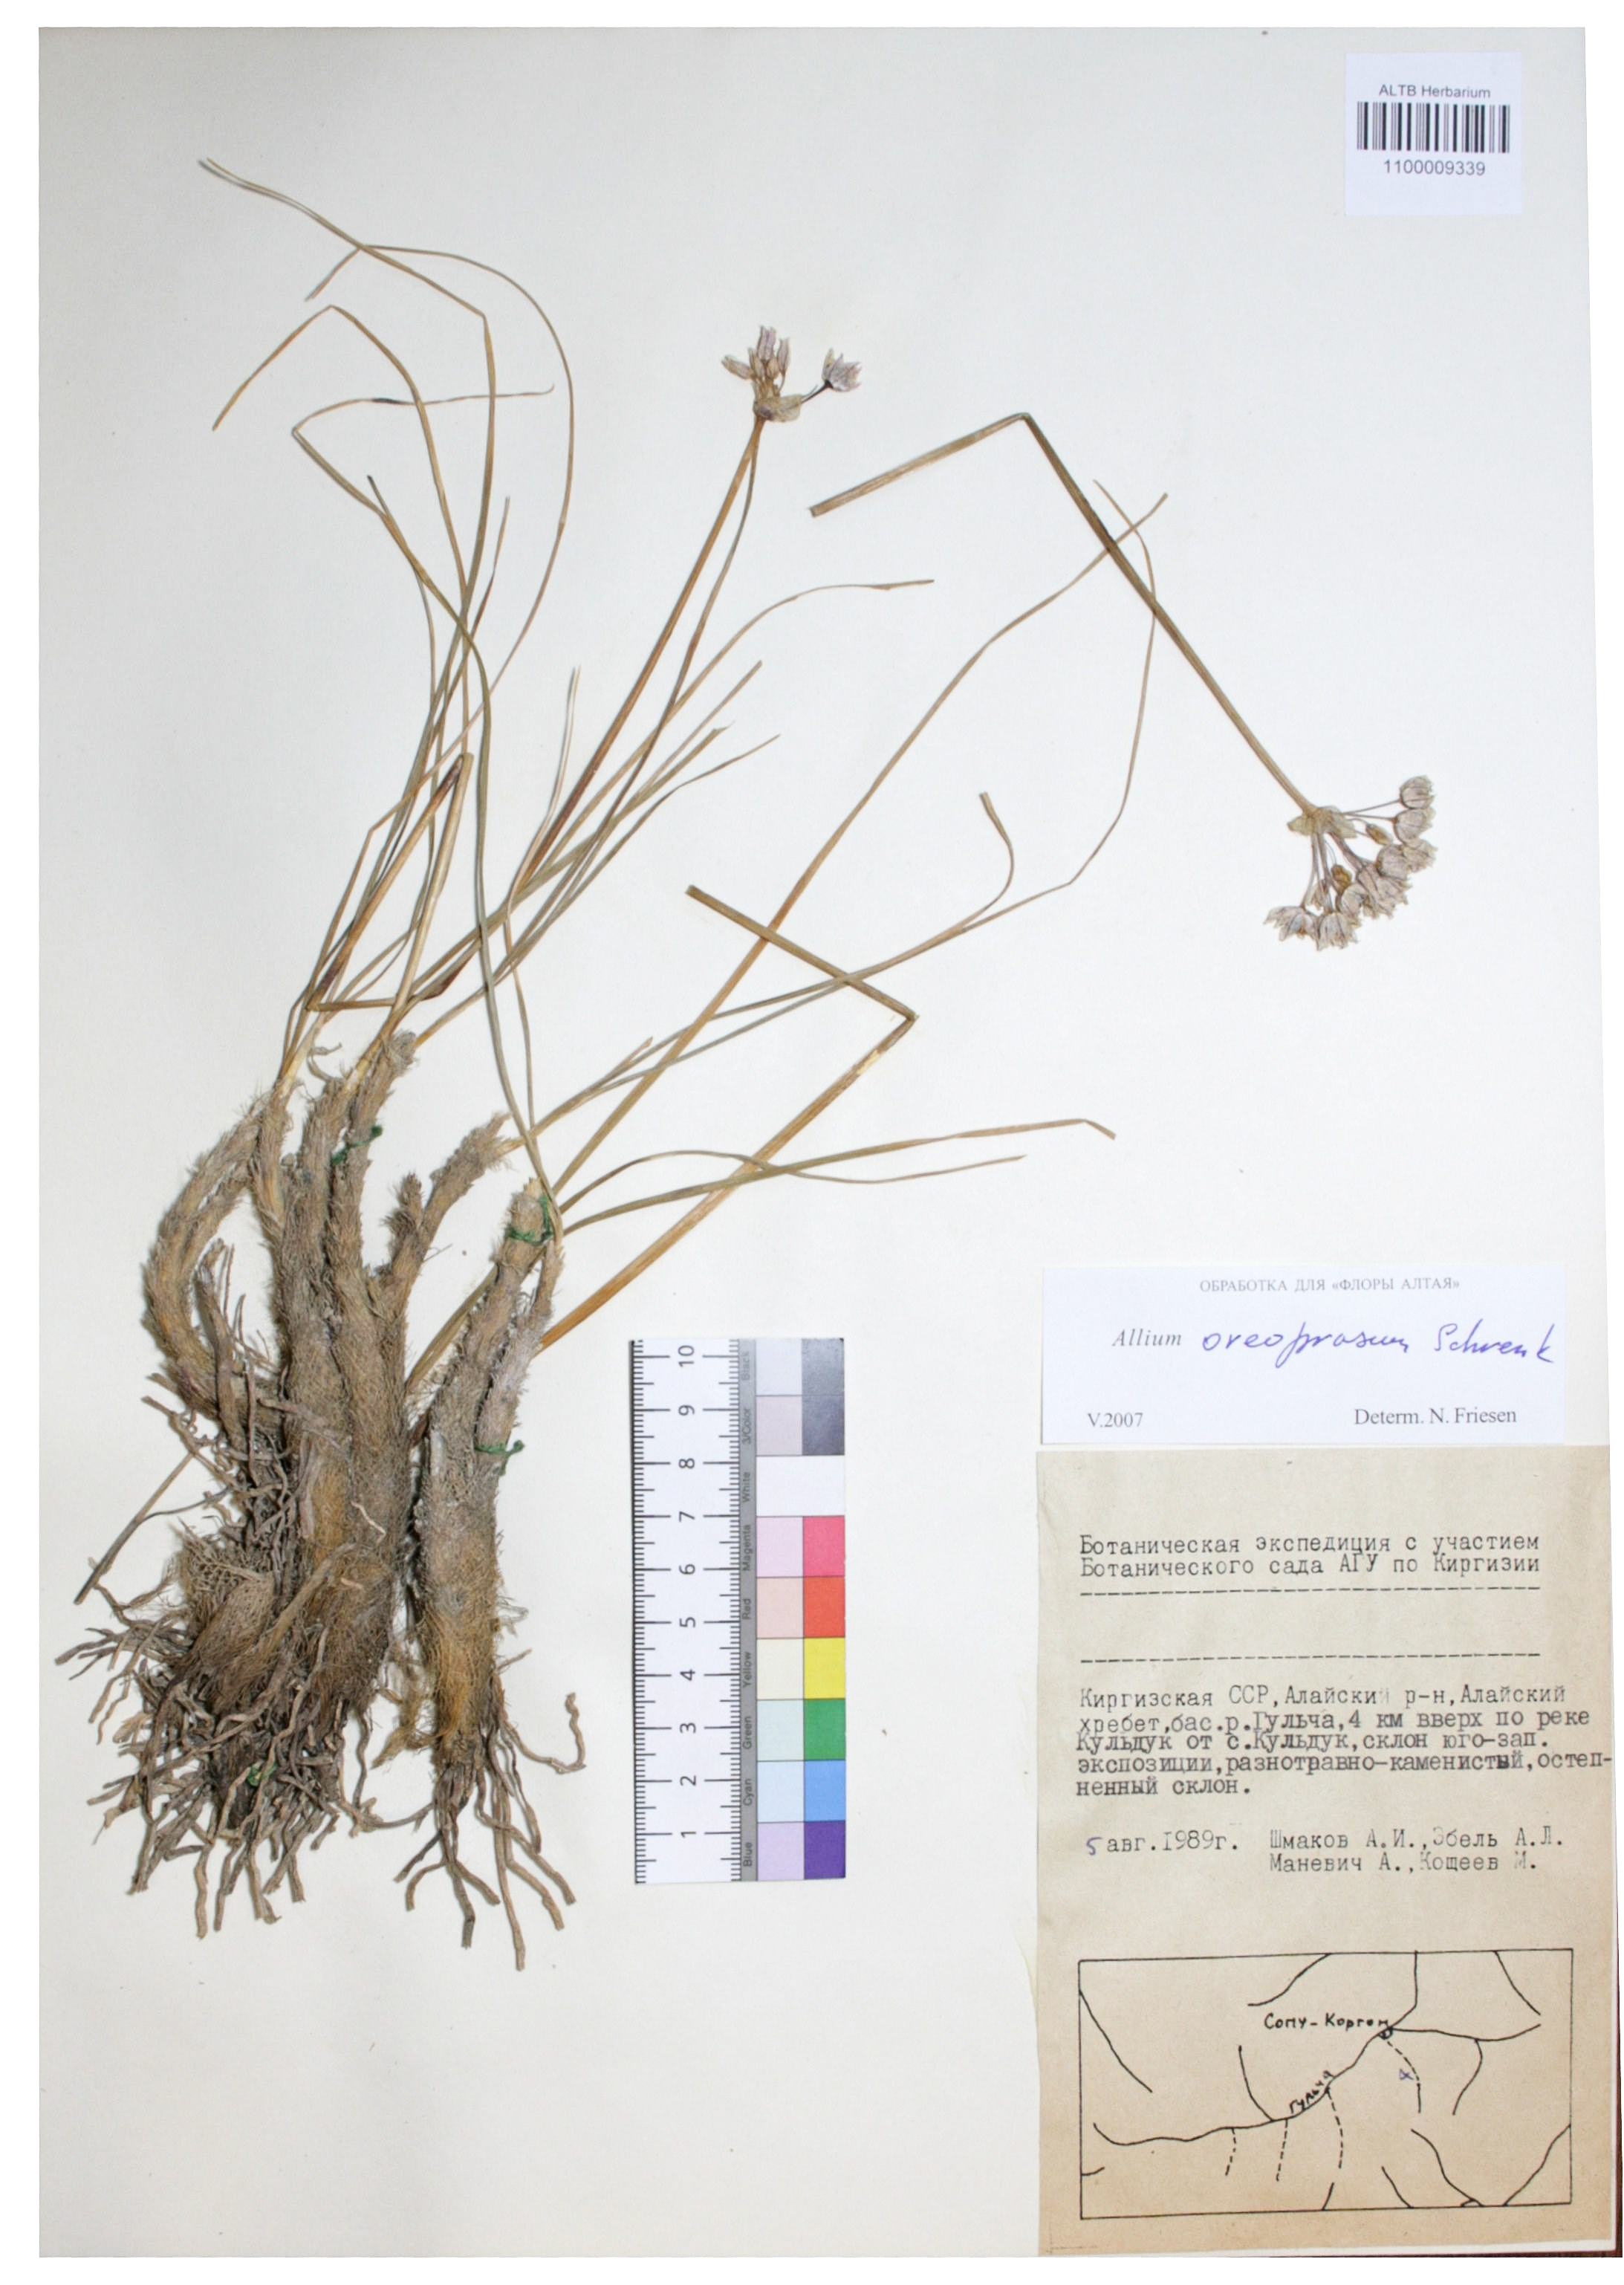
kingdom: Plantae
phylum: Tracheophyta
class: Liliopsida
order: Asparagales
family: Amaryllidaceae
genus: Allium
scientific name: Allium oreoprasum
